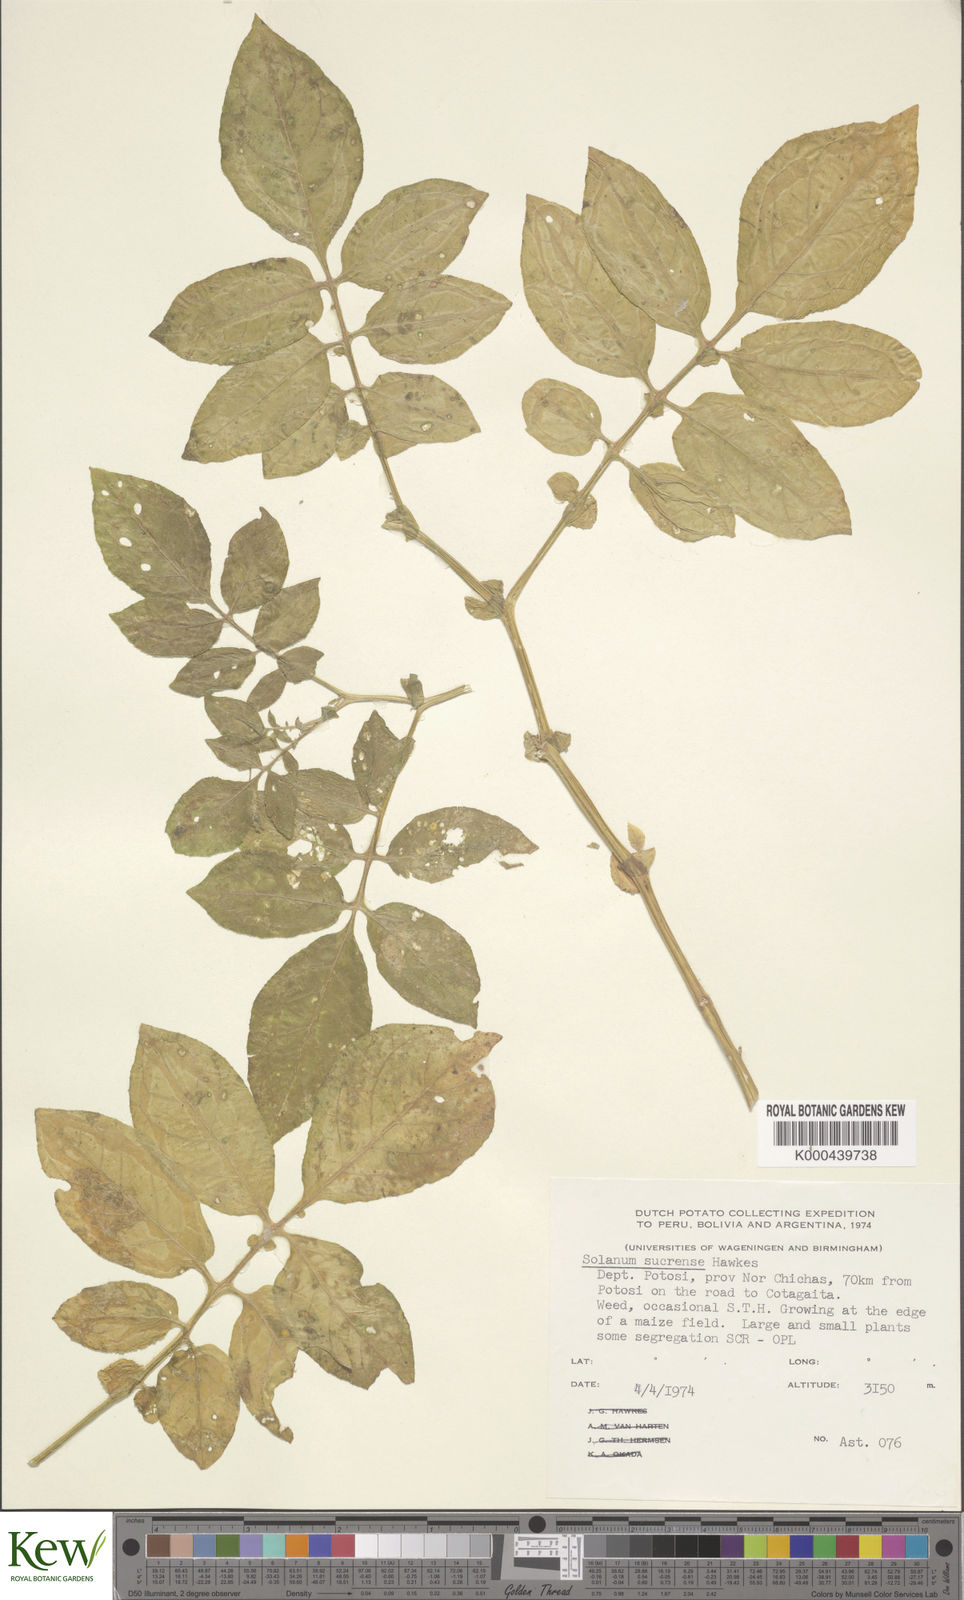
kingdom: Plantae
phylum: Tracheophyta
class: Magnoliopsida
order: Solanales
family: Solanaceae
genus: Solanum
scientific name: Solanum brevicaule
